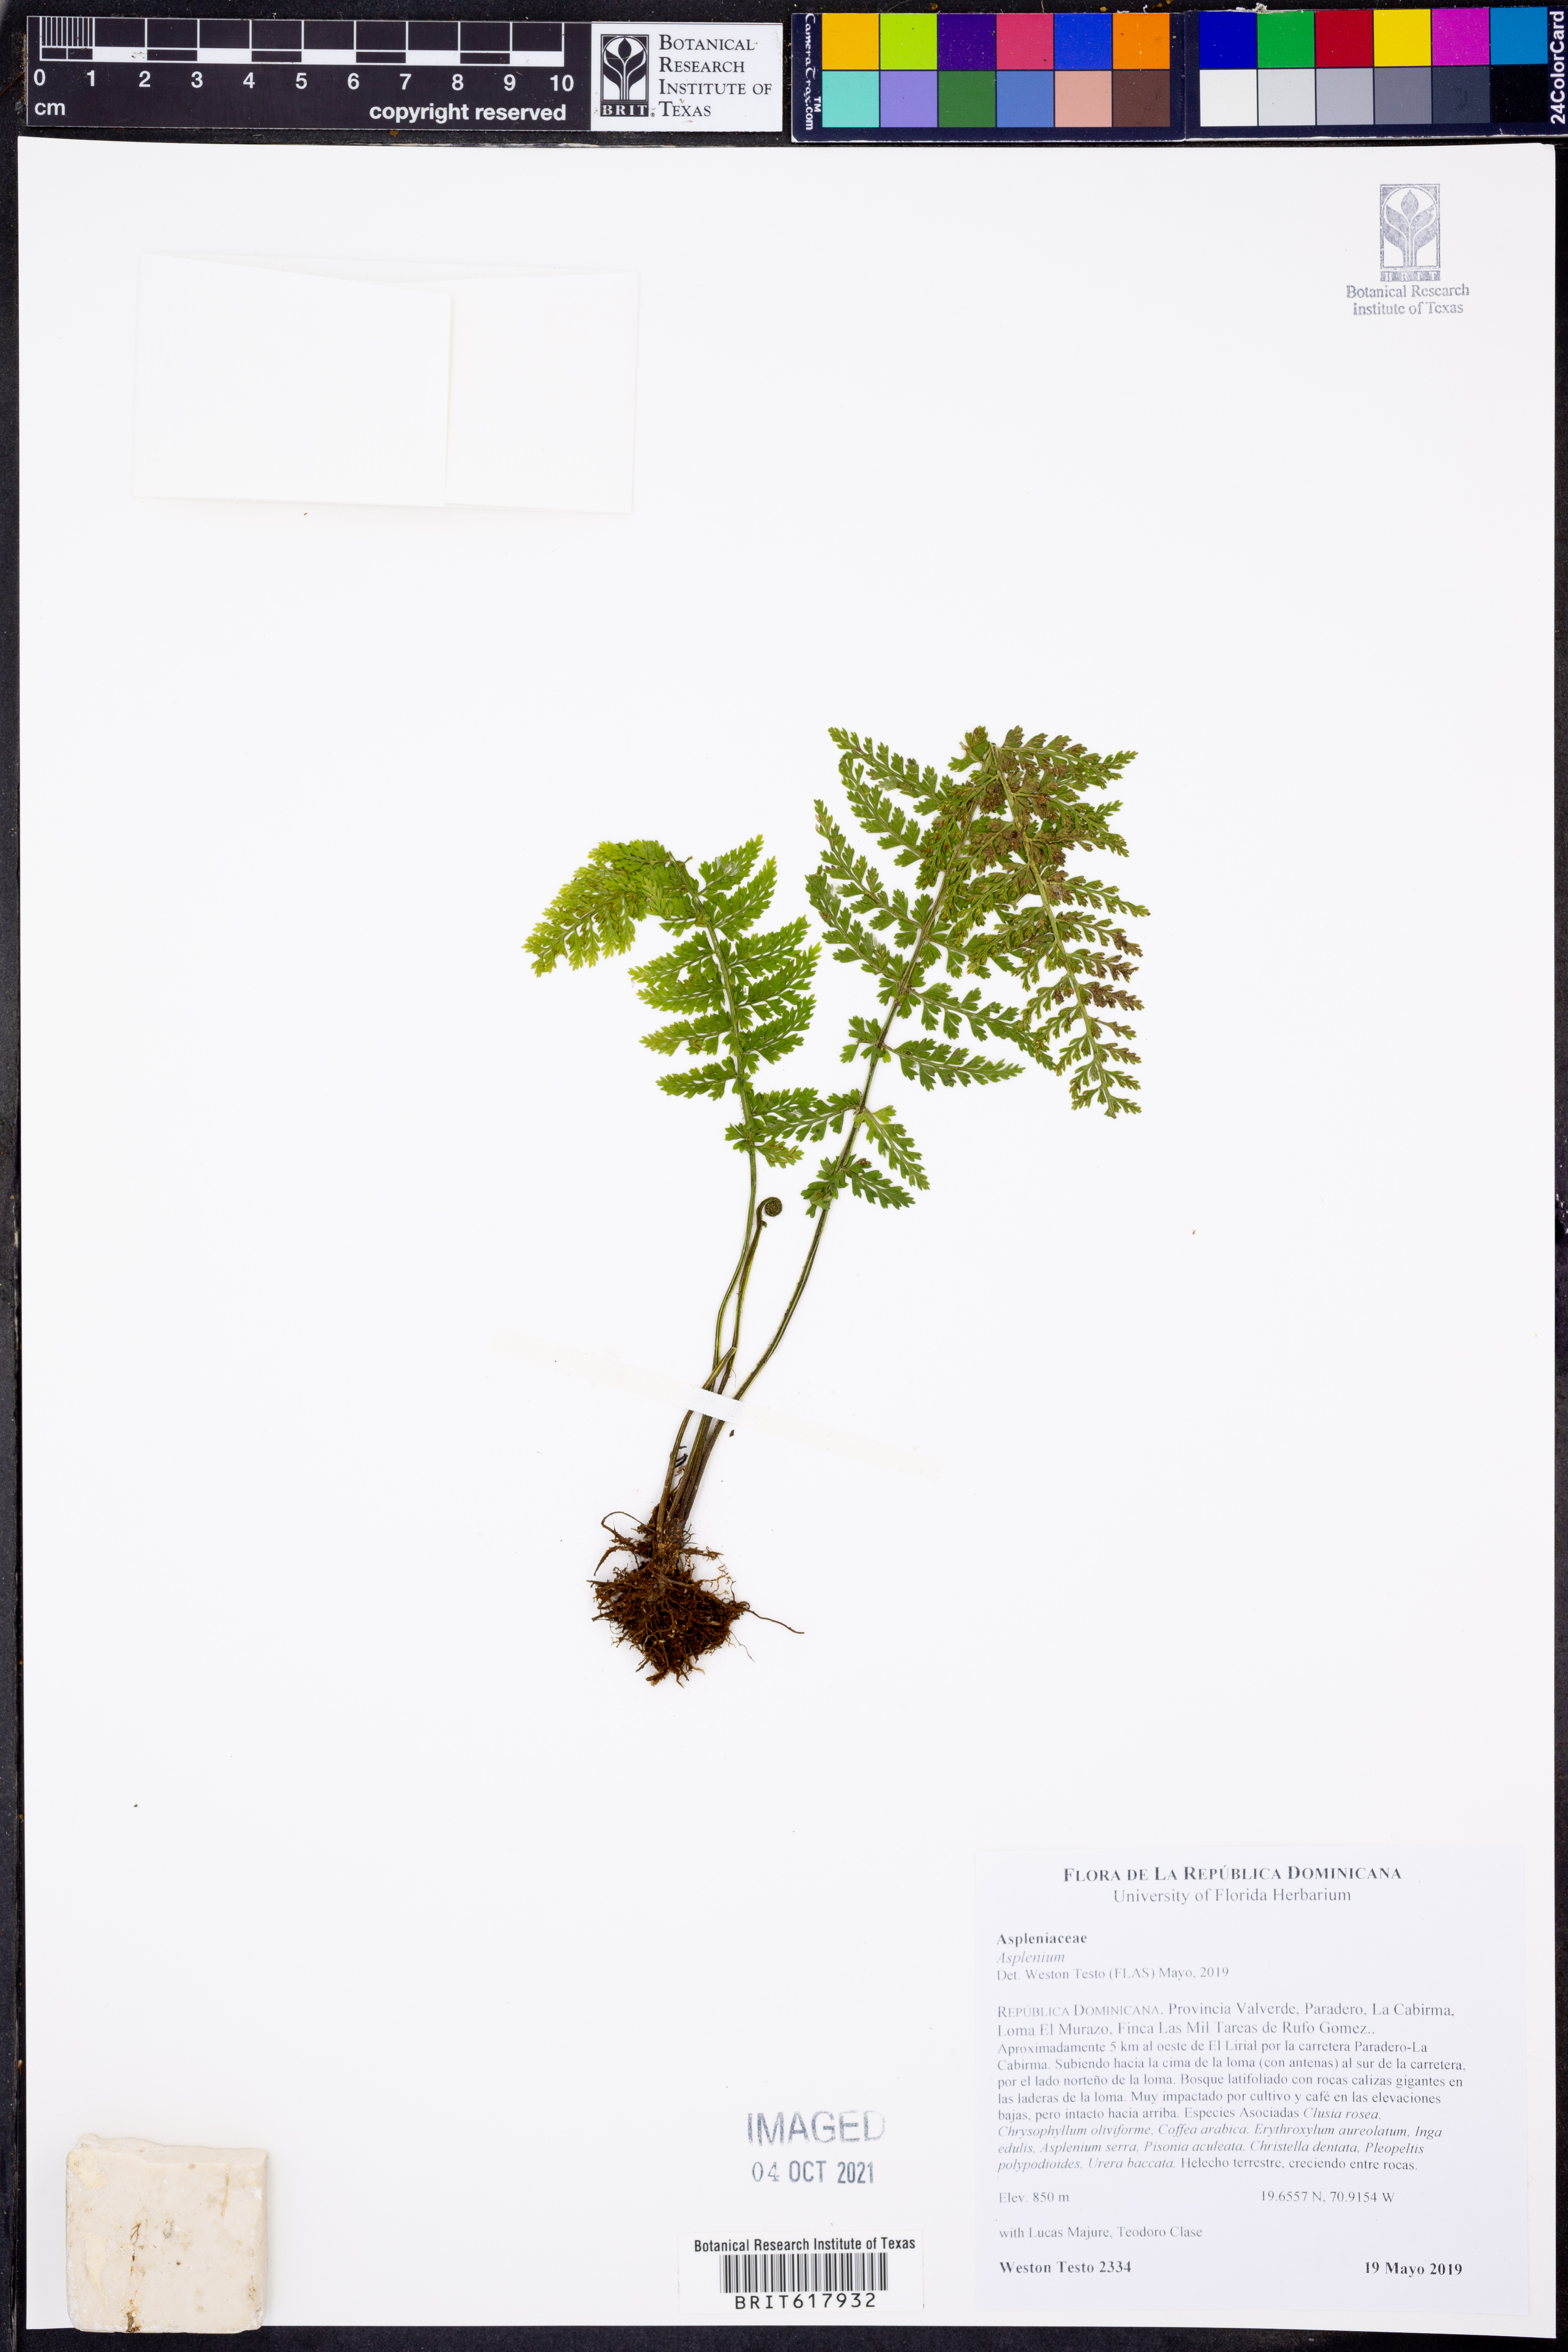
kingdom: Plantae
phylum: Tracheophyta
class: Polypodiopsida
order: Polypodiales
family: Aspleniaceae
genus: Asplenium
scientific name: Asplenium
